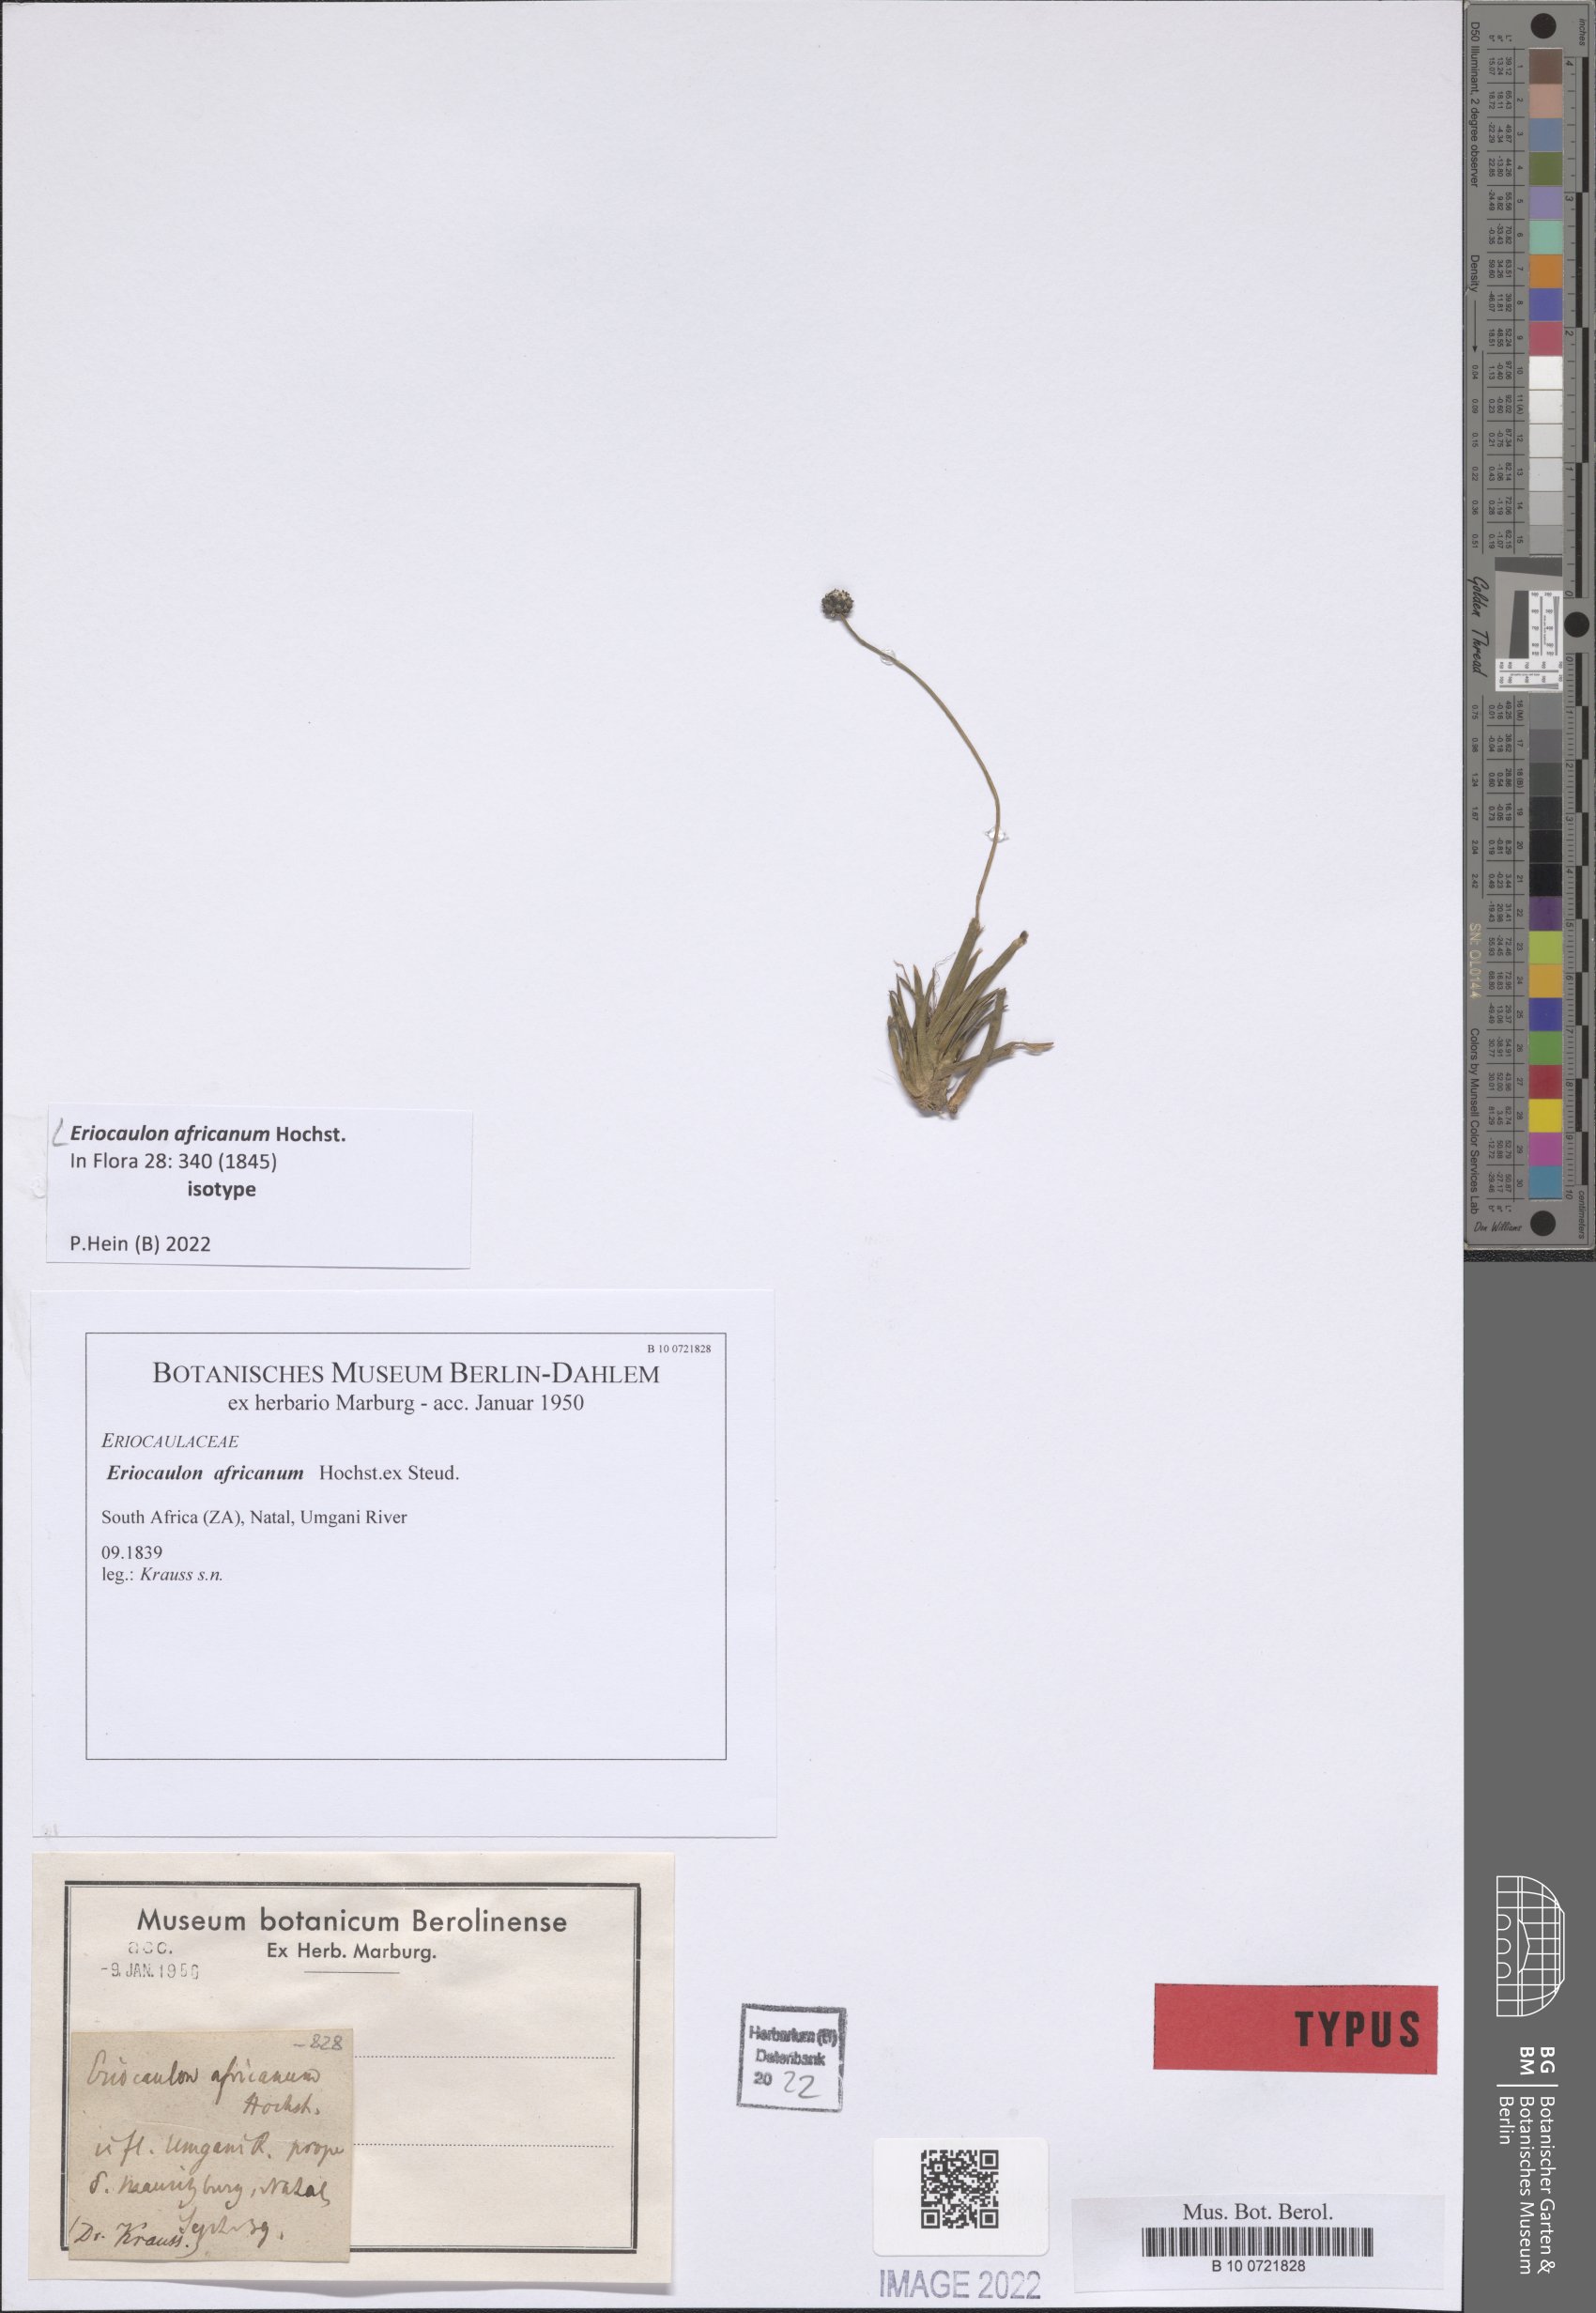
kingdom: Plantae
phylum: Tracheophyta
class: Liliopsida
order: Poales
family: Eriocaulaceae
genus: Eriocaulon
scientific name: Eriocaulon africanum
